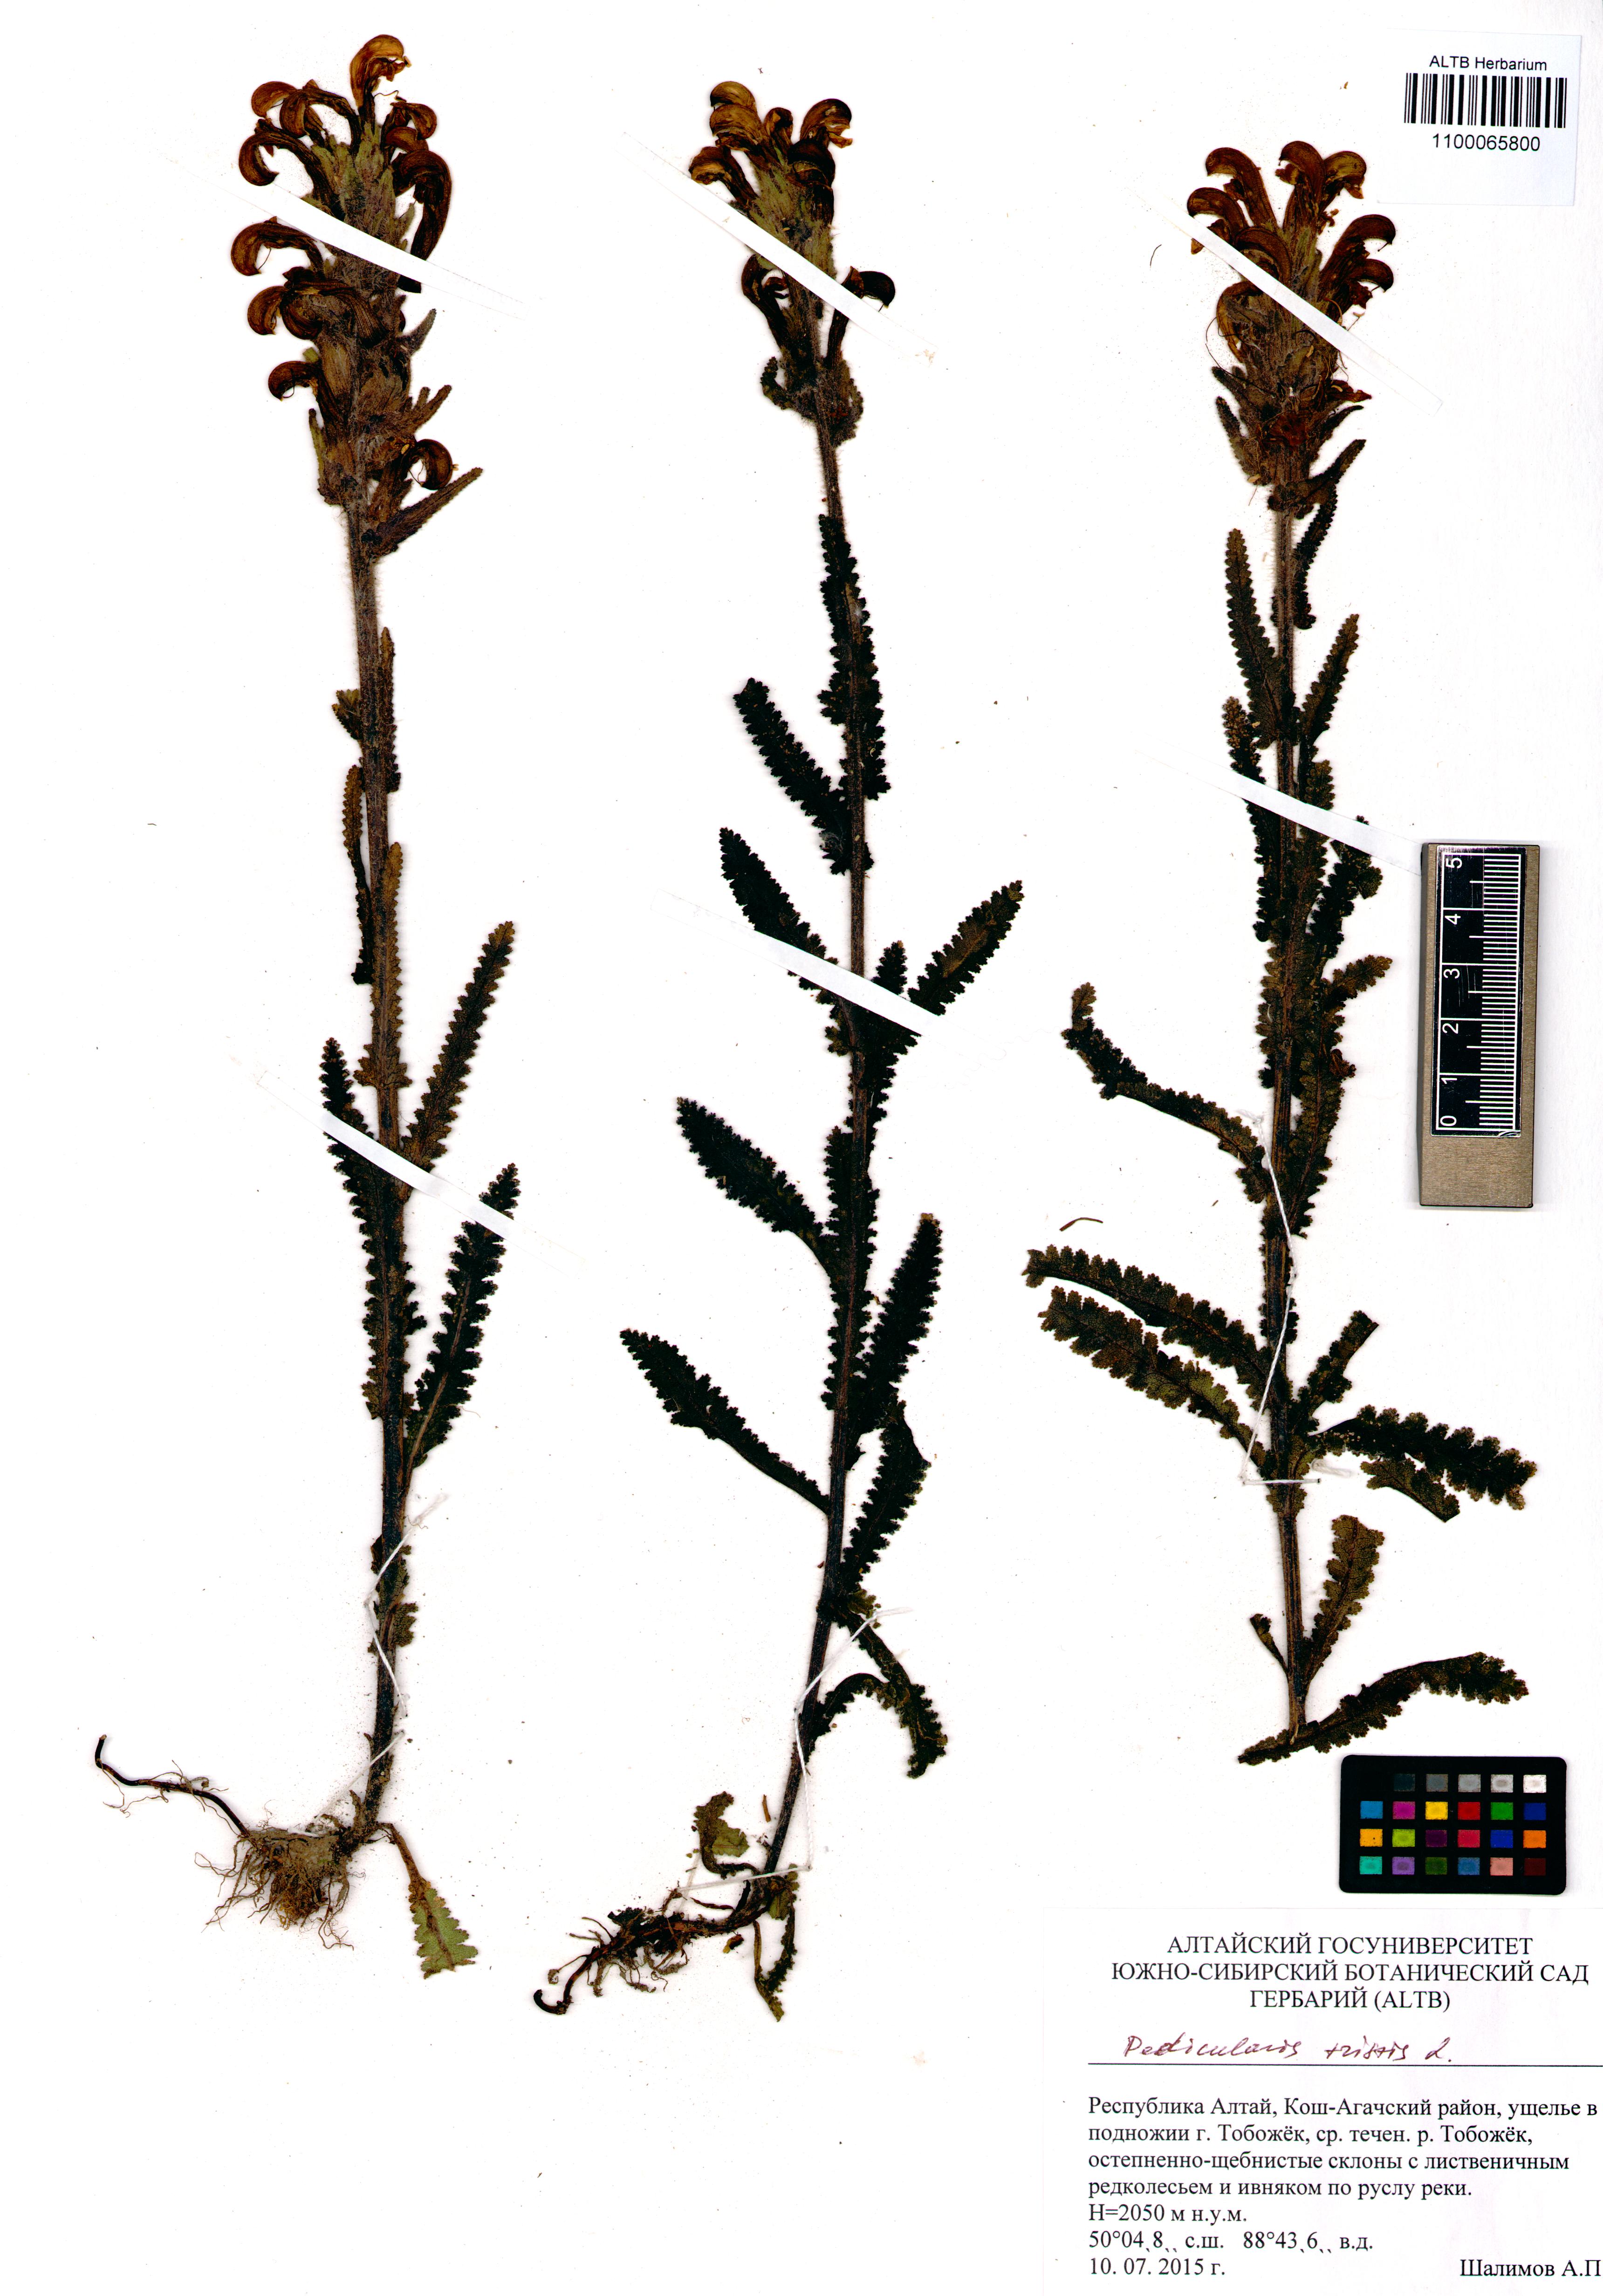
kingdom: Plantae
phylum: Tracheophyta
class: Magnoliopsida
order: Lamiales
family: Orobanchaceae
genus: Pedicularis
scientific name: Pedicularis tristis
